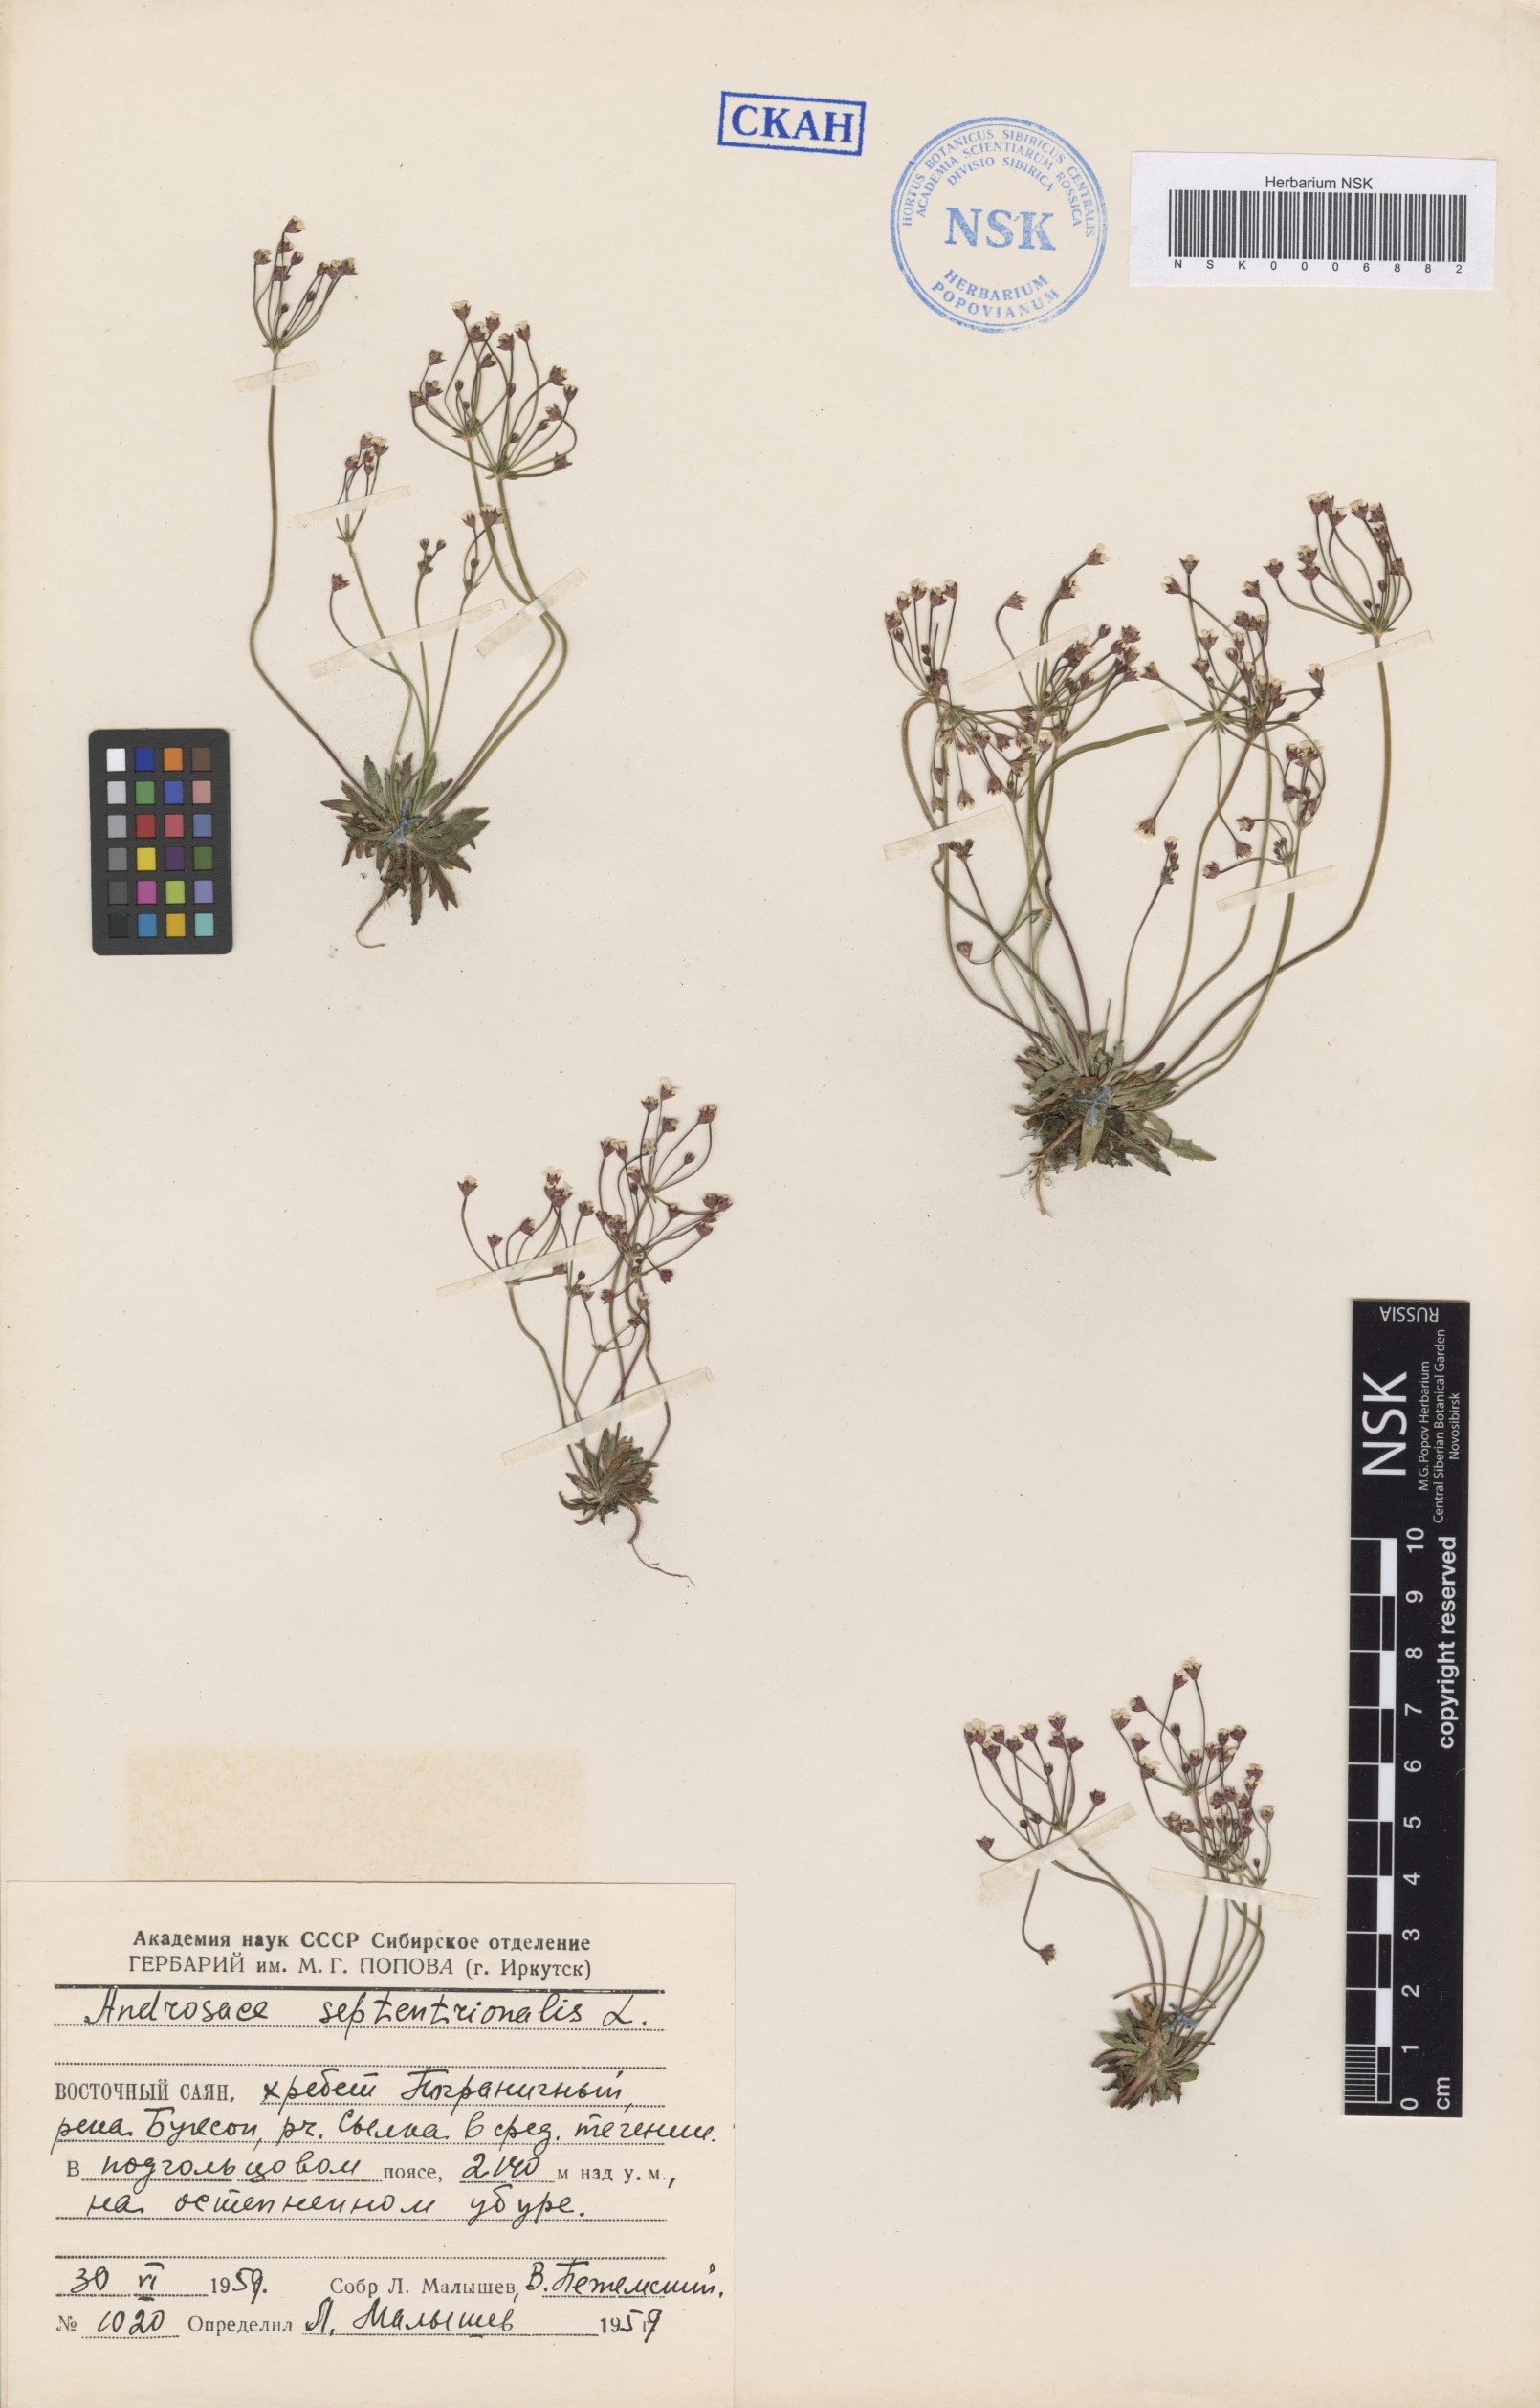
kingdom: Plantae
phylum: Tracheophyta
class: Magnoliopsida
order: Ericales
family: Primulaceae
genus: Androsace
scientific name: Androsace septentrionalis
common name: Hairy northern fairy-candelabra
